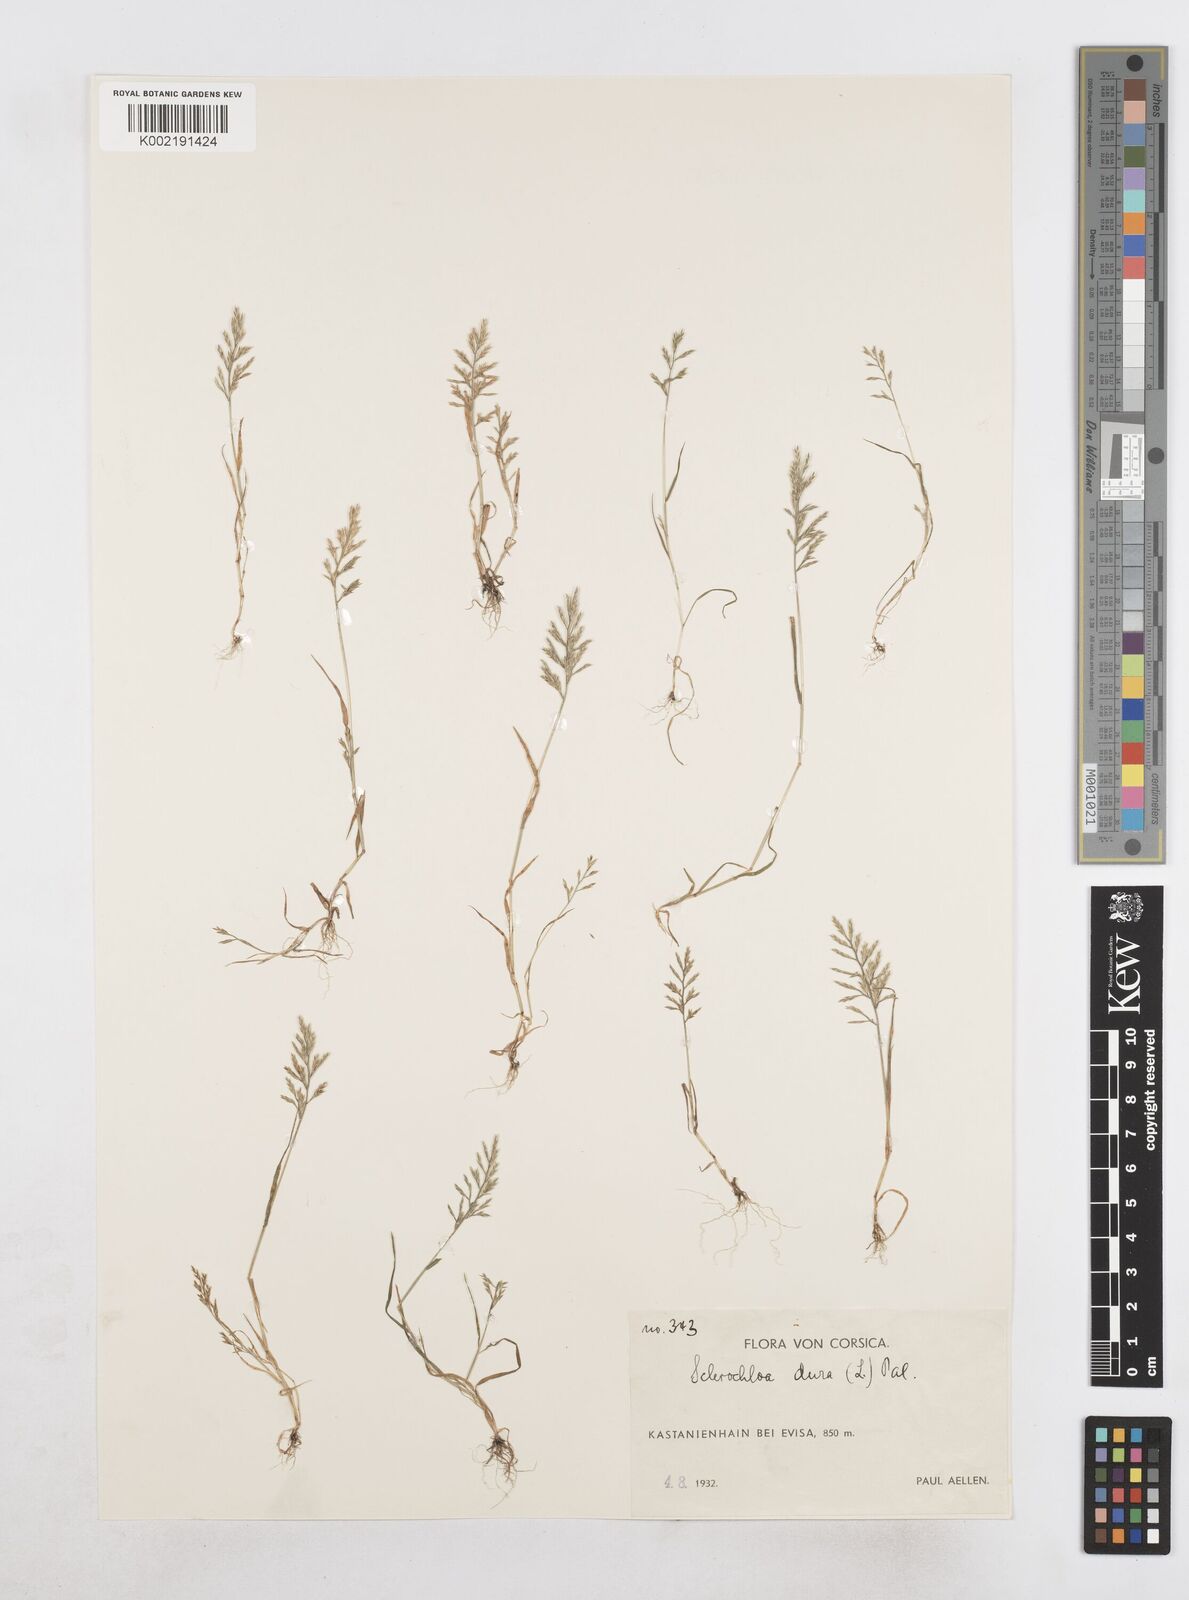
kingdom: Plantae
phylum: Tracheophyta
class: Liliopsida
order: Poales
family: Poaceae
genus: Catapodium
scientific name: Catapodium
